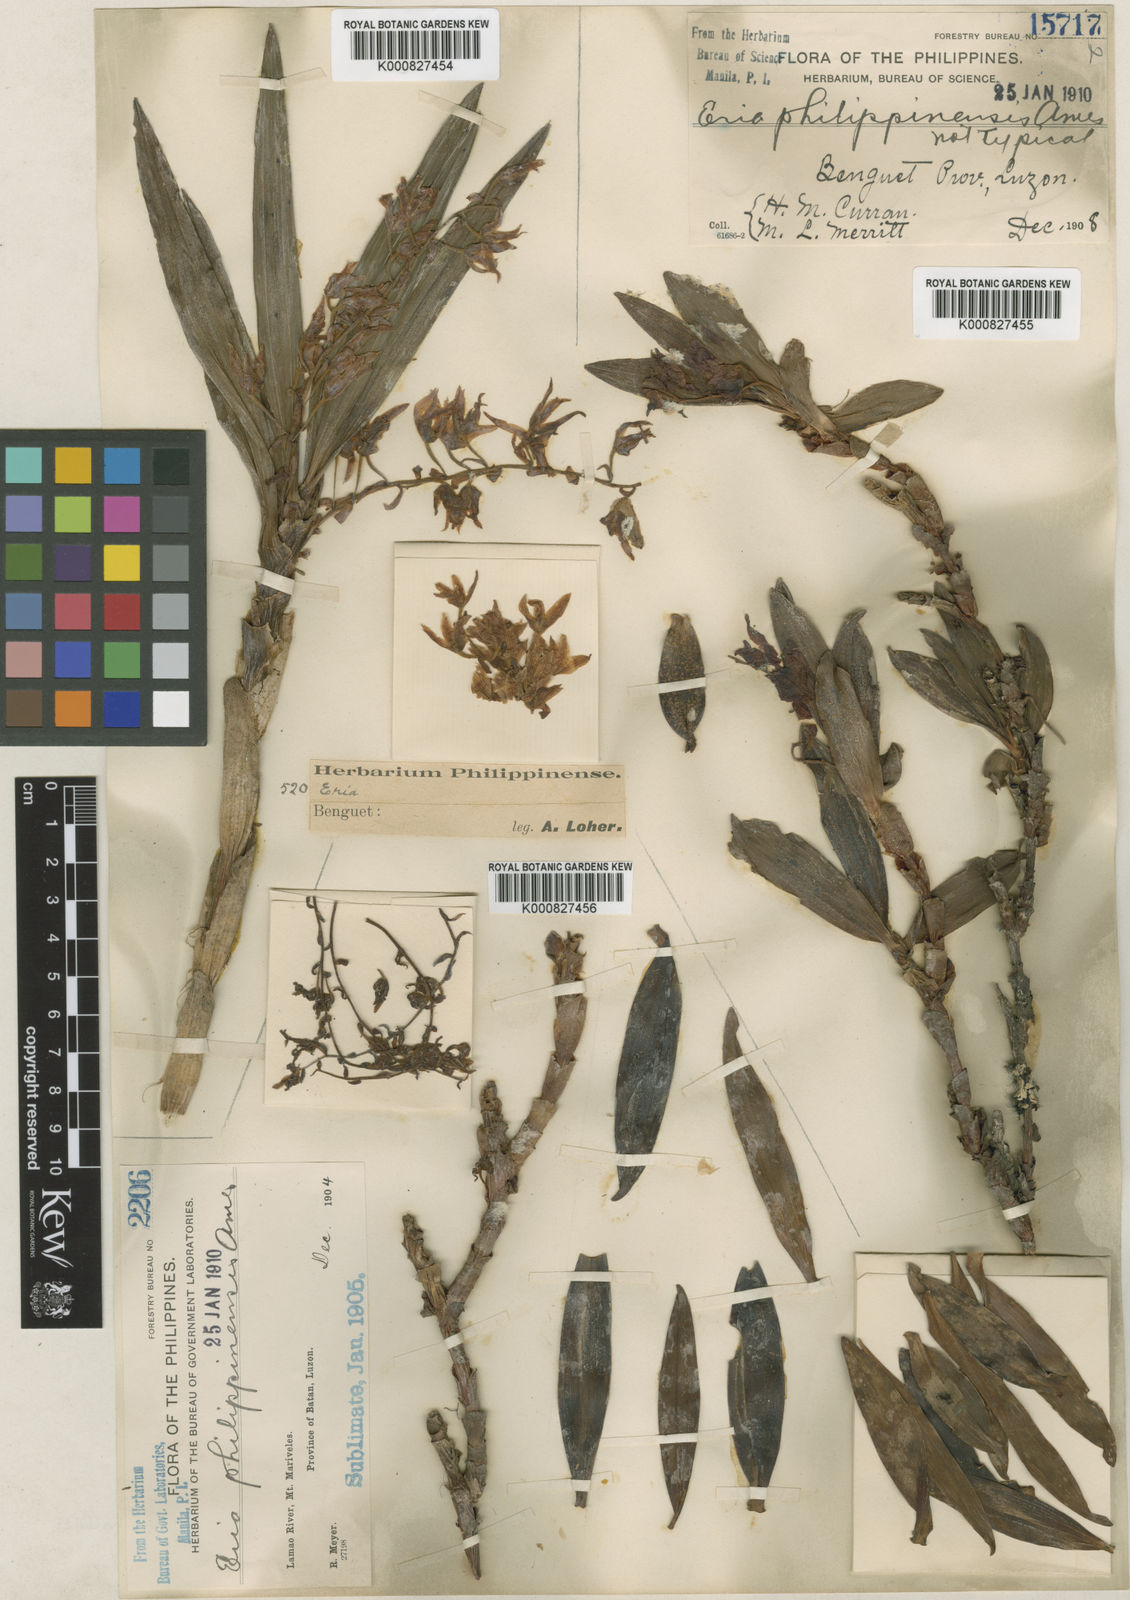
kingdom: Plantae
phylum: Tracheophyta
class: Liliopsida
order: Asparagales
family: Orchidaceae
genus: Pinalia
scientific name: Pinalia philippinensis
